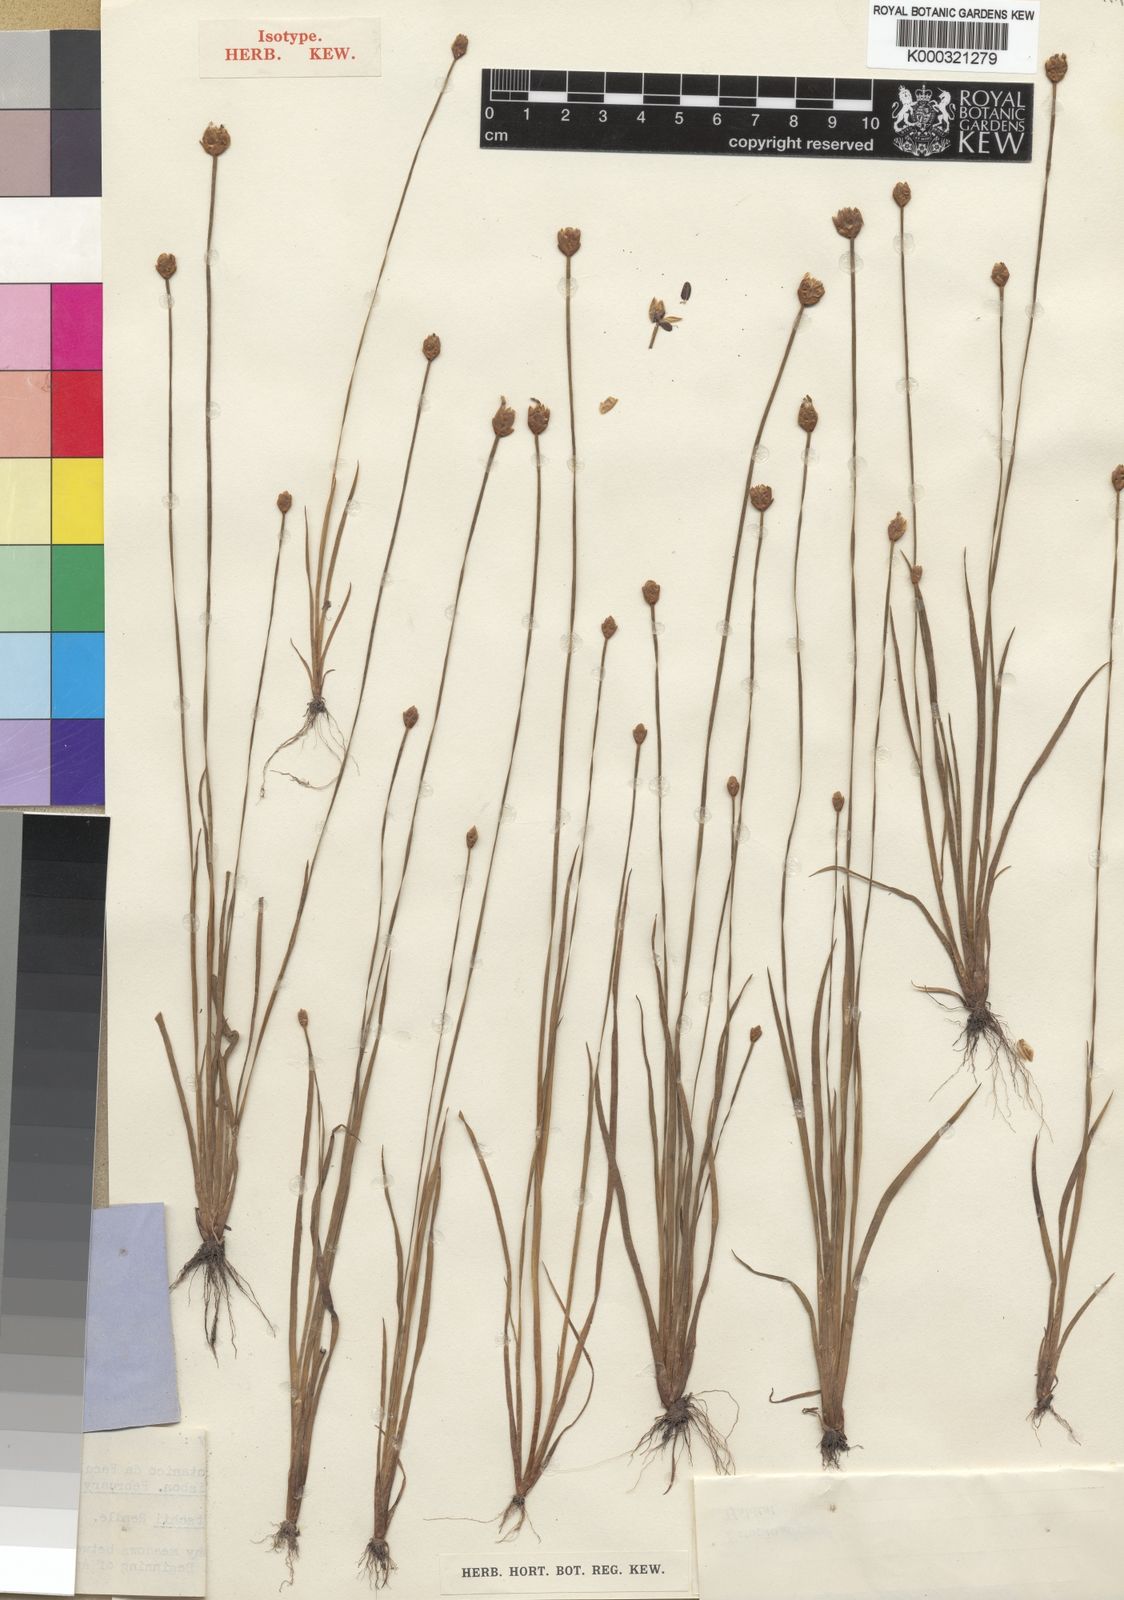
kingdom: Plantae
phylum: Tracheophyta
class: Liliopsida
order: Poales
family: Xyridaceae
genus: Xyris
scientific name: Xyris welwitschii
